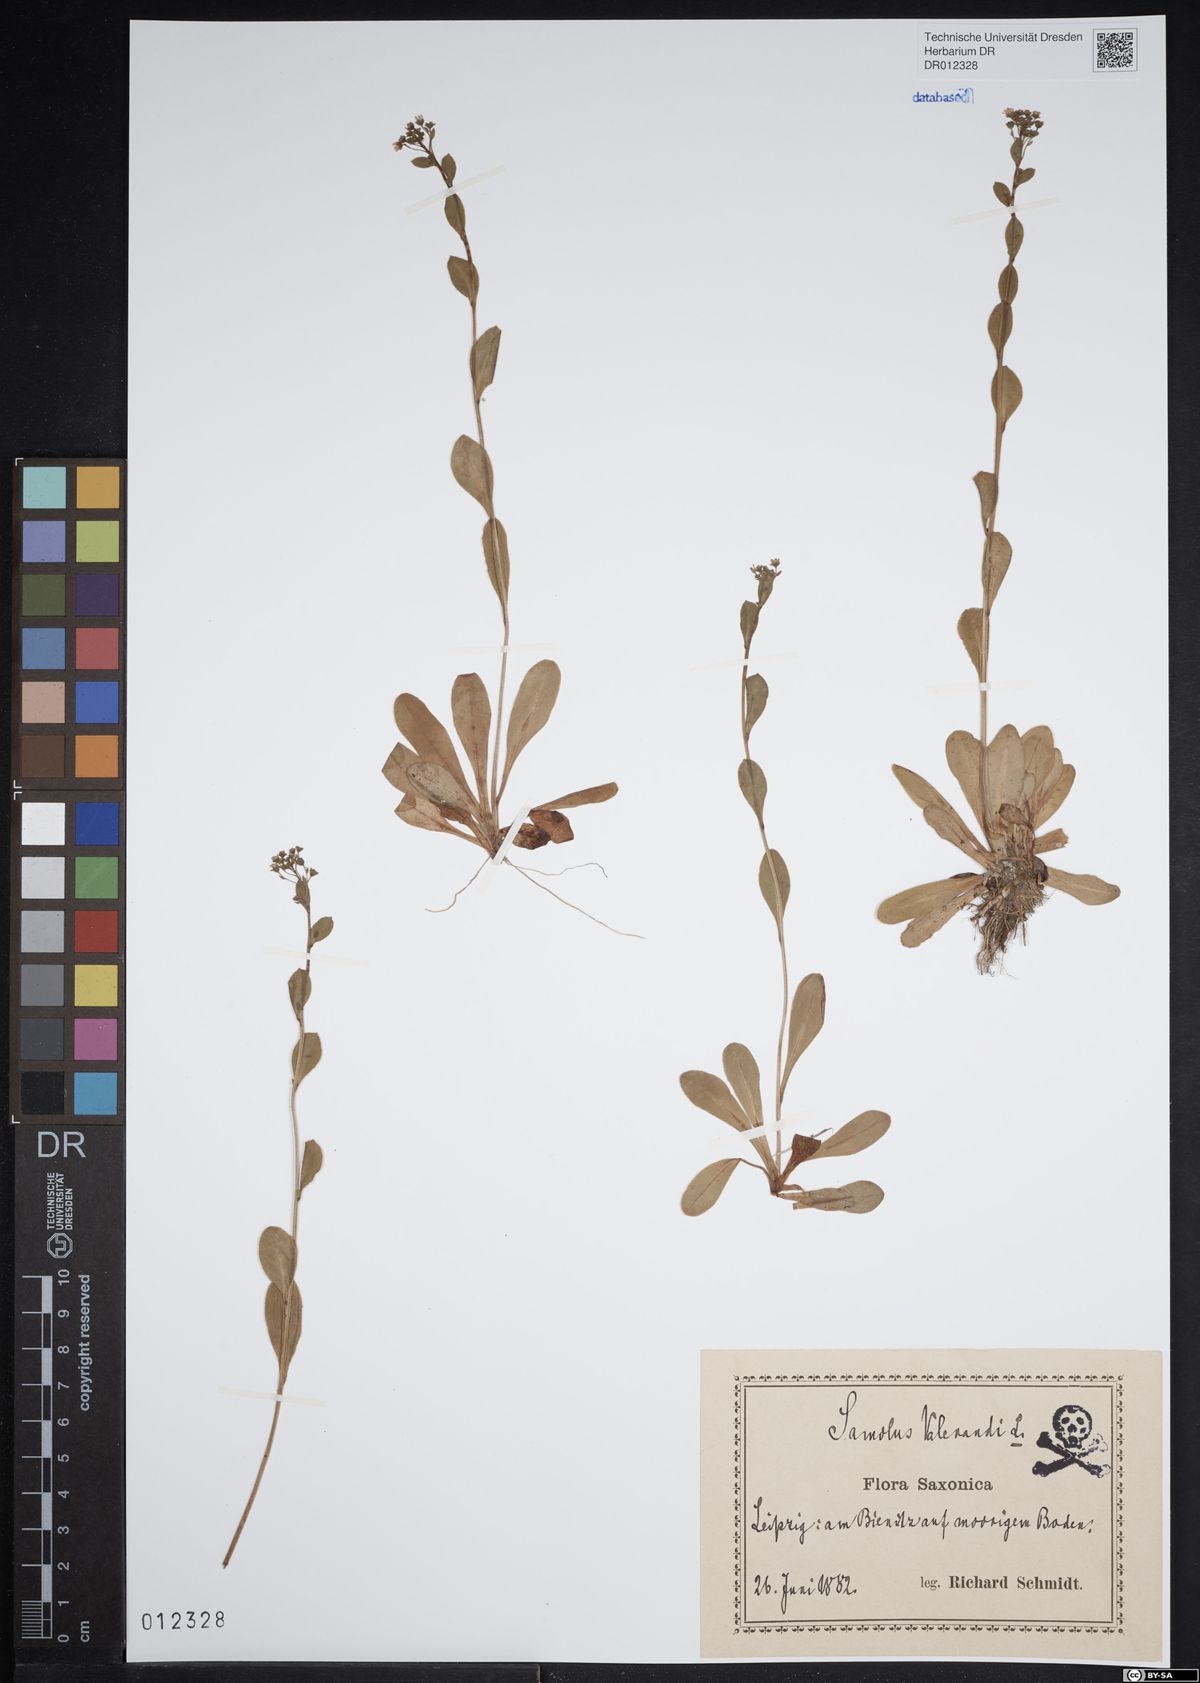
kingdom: Plantae
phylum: Tracheophyta
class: Magnoliopsida
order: Ericales
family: Primulaceae
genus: Samolus
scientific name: Samolus valerandi
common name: Brookweed
